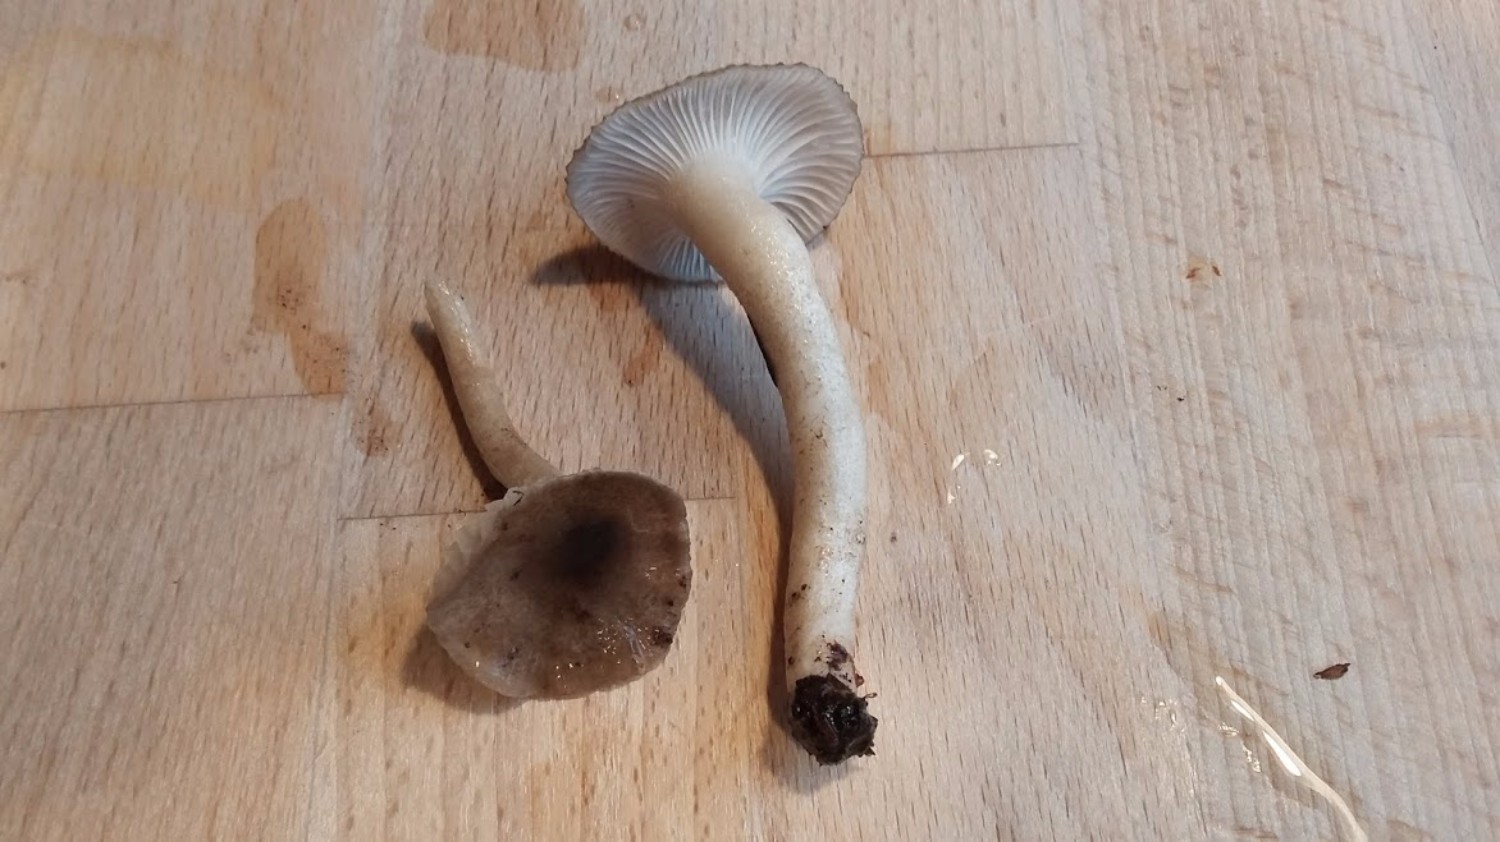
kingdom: Fungi
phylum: Basidiomycota
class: Agaricomycetes
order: Agaricales
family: Hygrophoraceae
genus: Hygrophorus
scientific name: Hygrophorus pustulatus
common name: mørkprikket sneglehat
